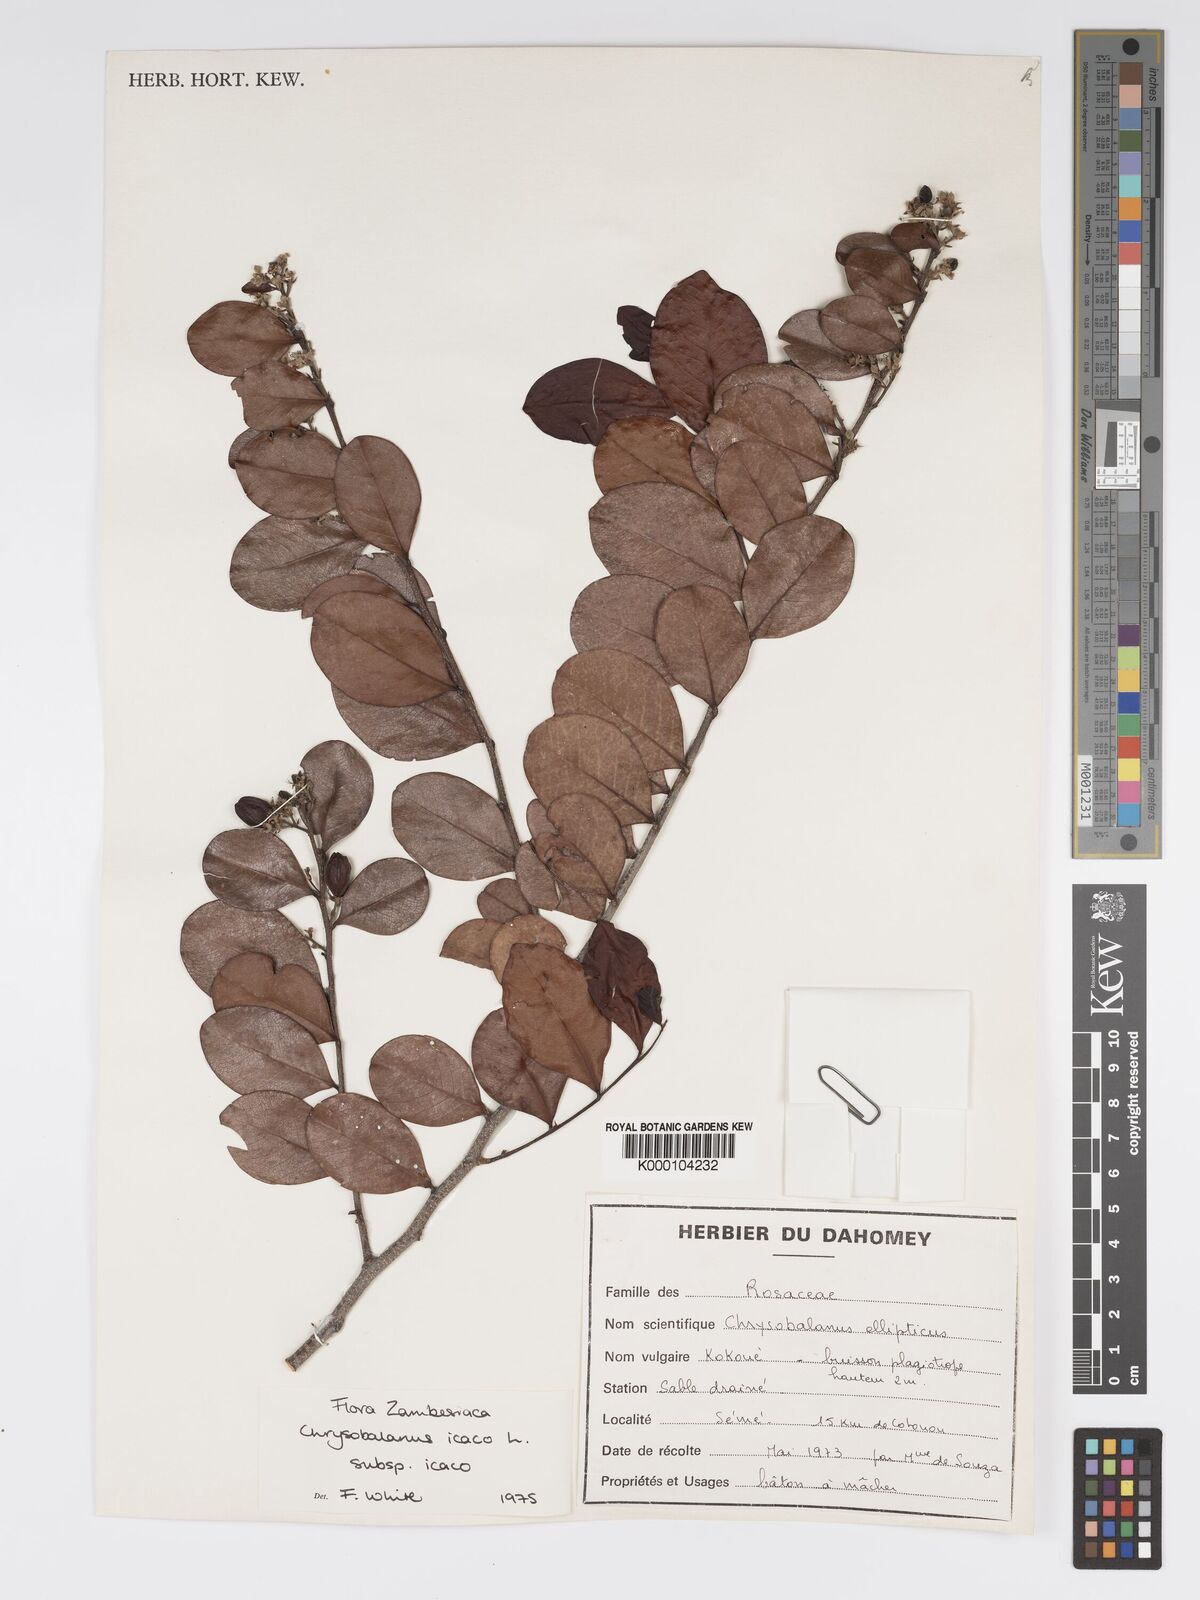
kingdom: Plantae
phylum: Tracheophyta
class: Magnoliopsida
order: Malpighiales
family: Chrysobalanaceae
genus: Chrysobalanus
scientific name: Chrysobalanus icaco
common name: Coco plum
